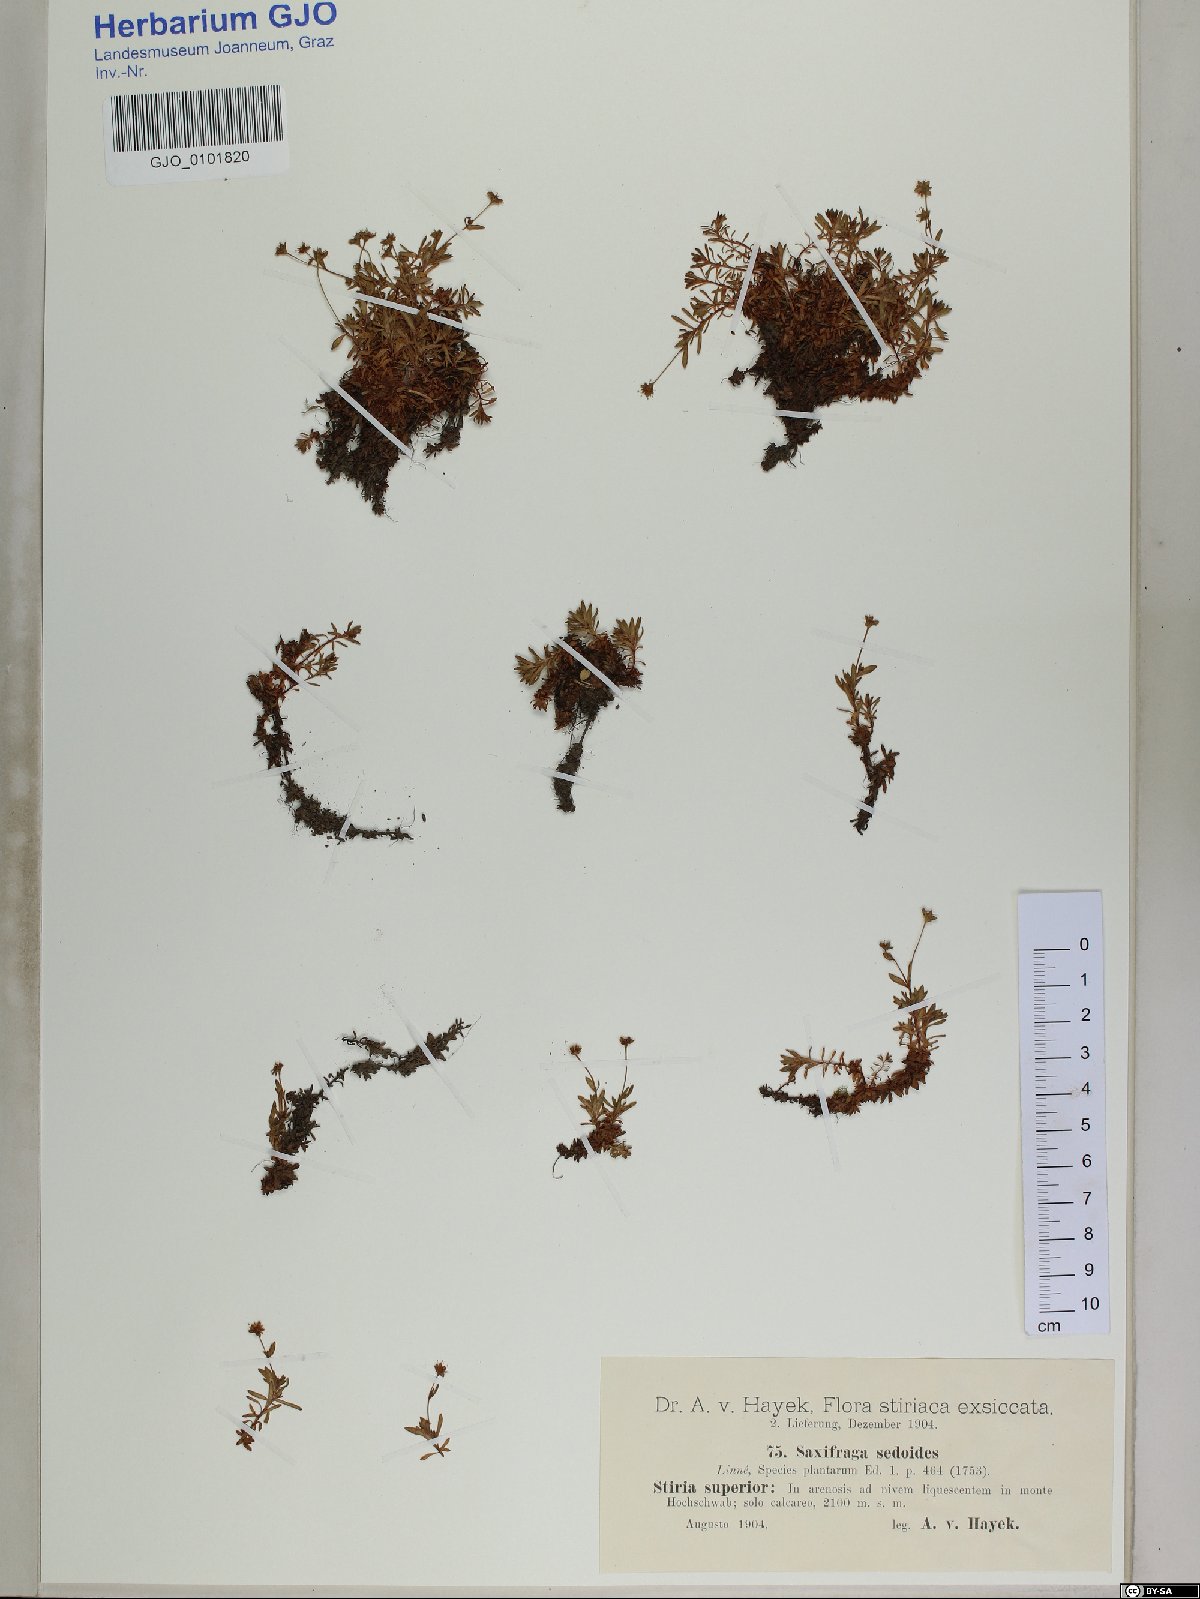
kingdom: Plantae
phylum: Tracheophyta
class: Magnoliopsida
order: Saxifragales
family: Saxifragaceae
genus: Saxifraga
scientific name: Saxifraga sedoides
